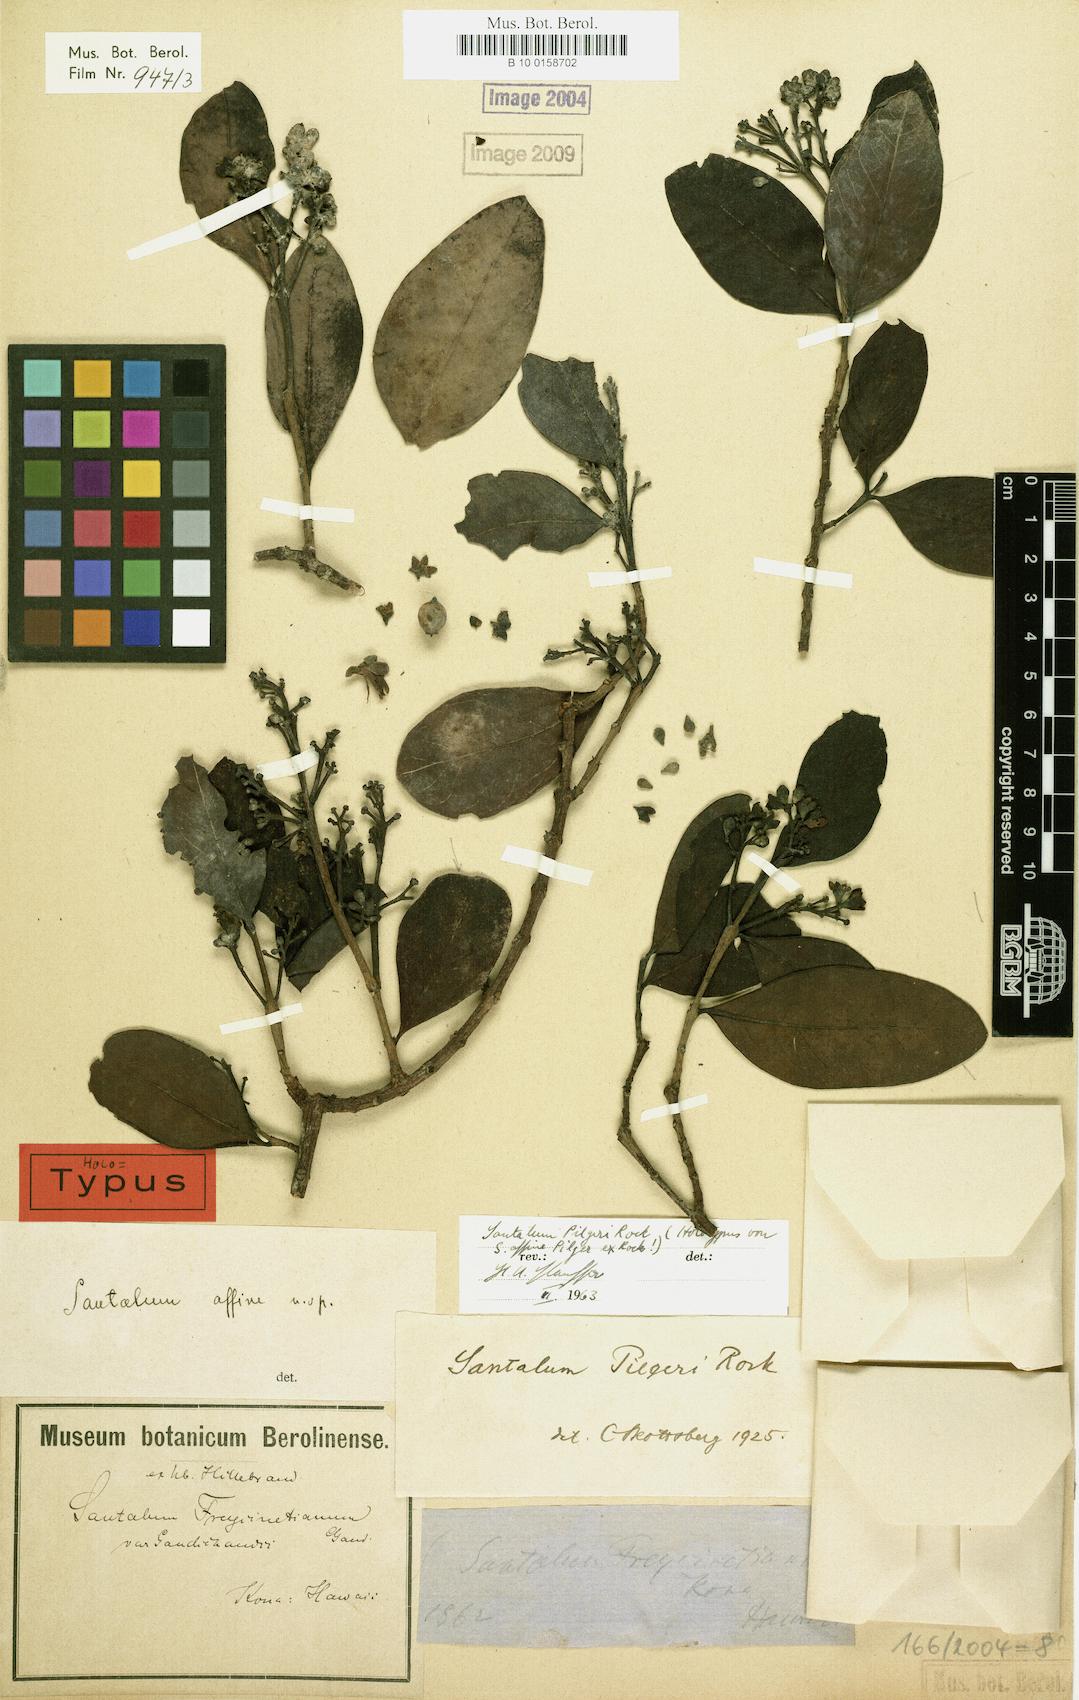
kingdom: Plantae
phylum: Tracheophyta
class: Magnoliopsida
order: Santalales
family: Santalaceae
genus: Santalum
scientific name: Santalum paniculatum
